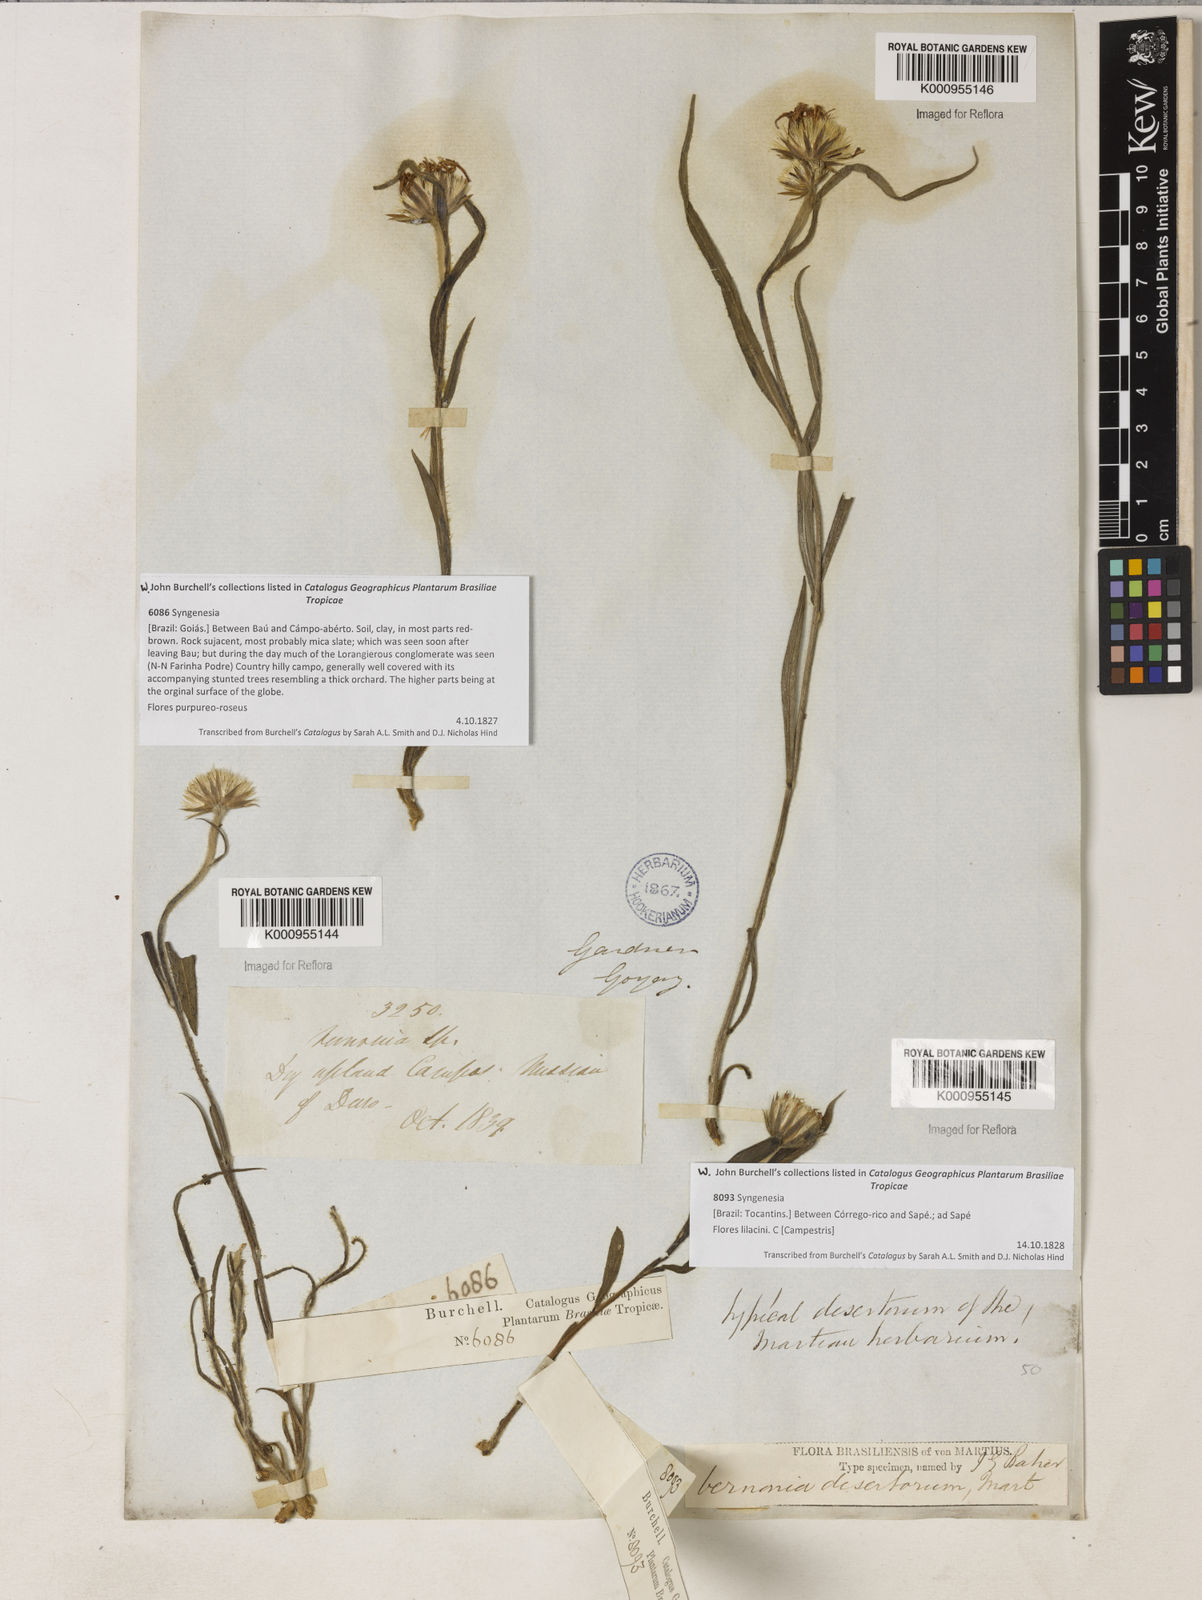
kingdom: Plantae
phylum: Tracheophyta
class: Magnoliopsida
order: Asterales
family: Asteraceae
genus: Chrysolaena
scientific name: Chrysolaena desertorum
